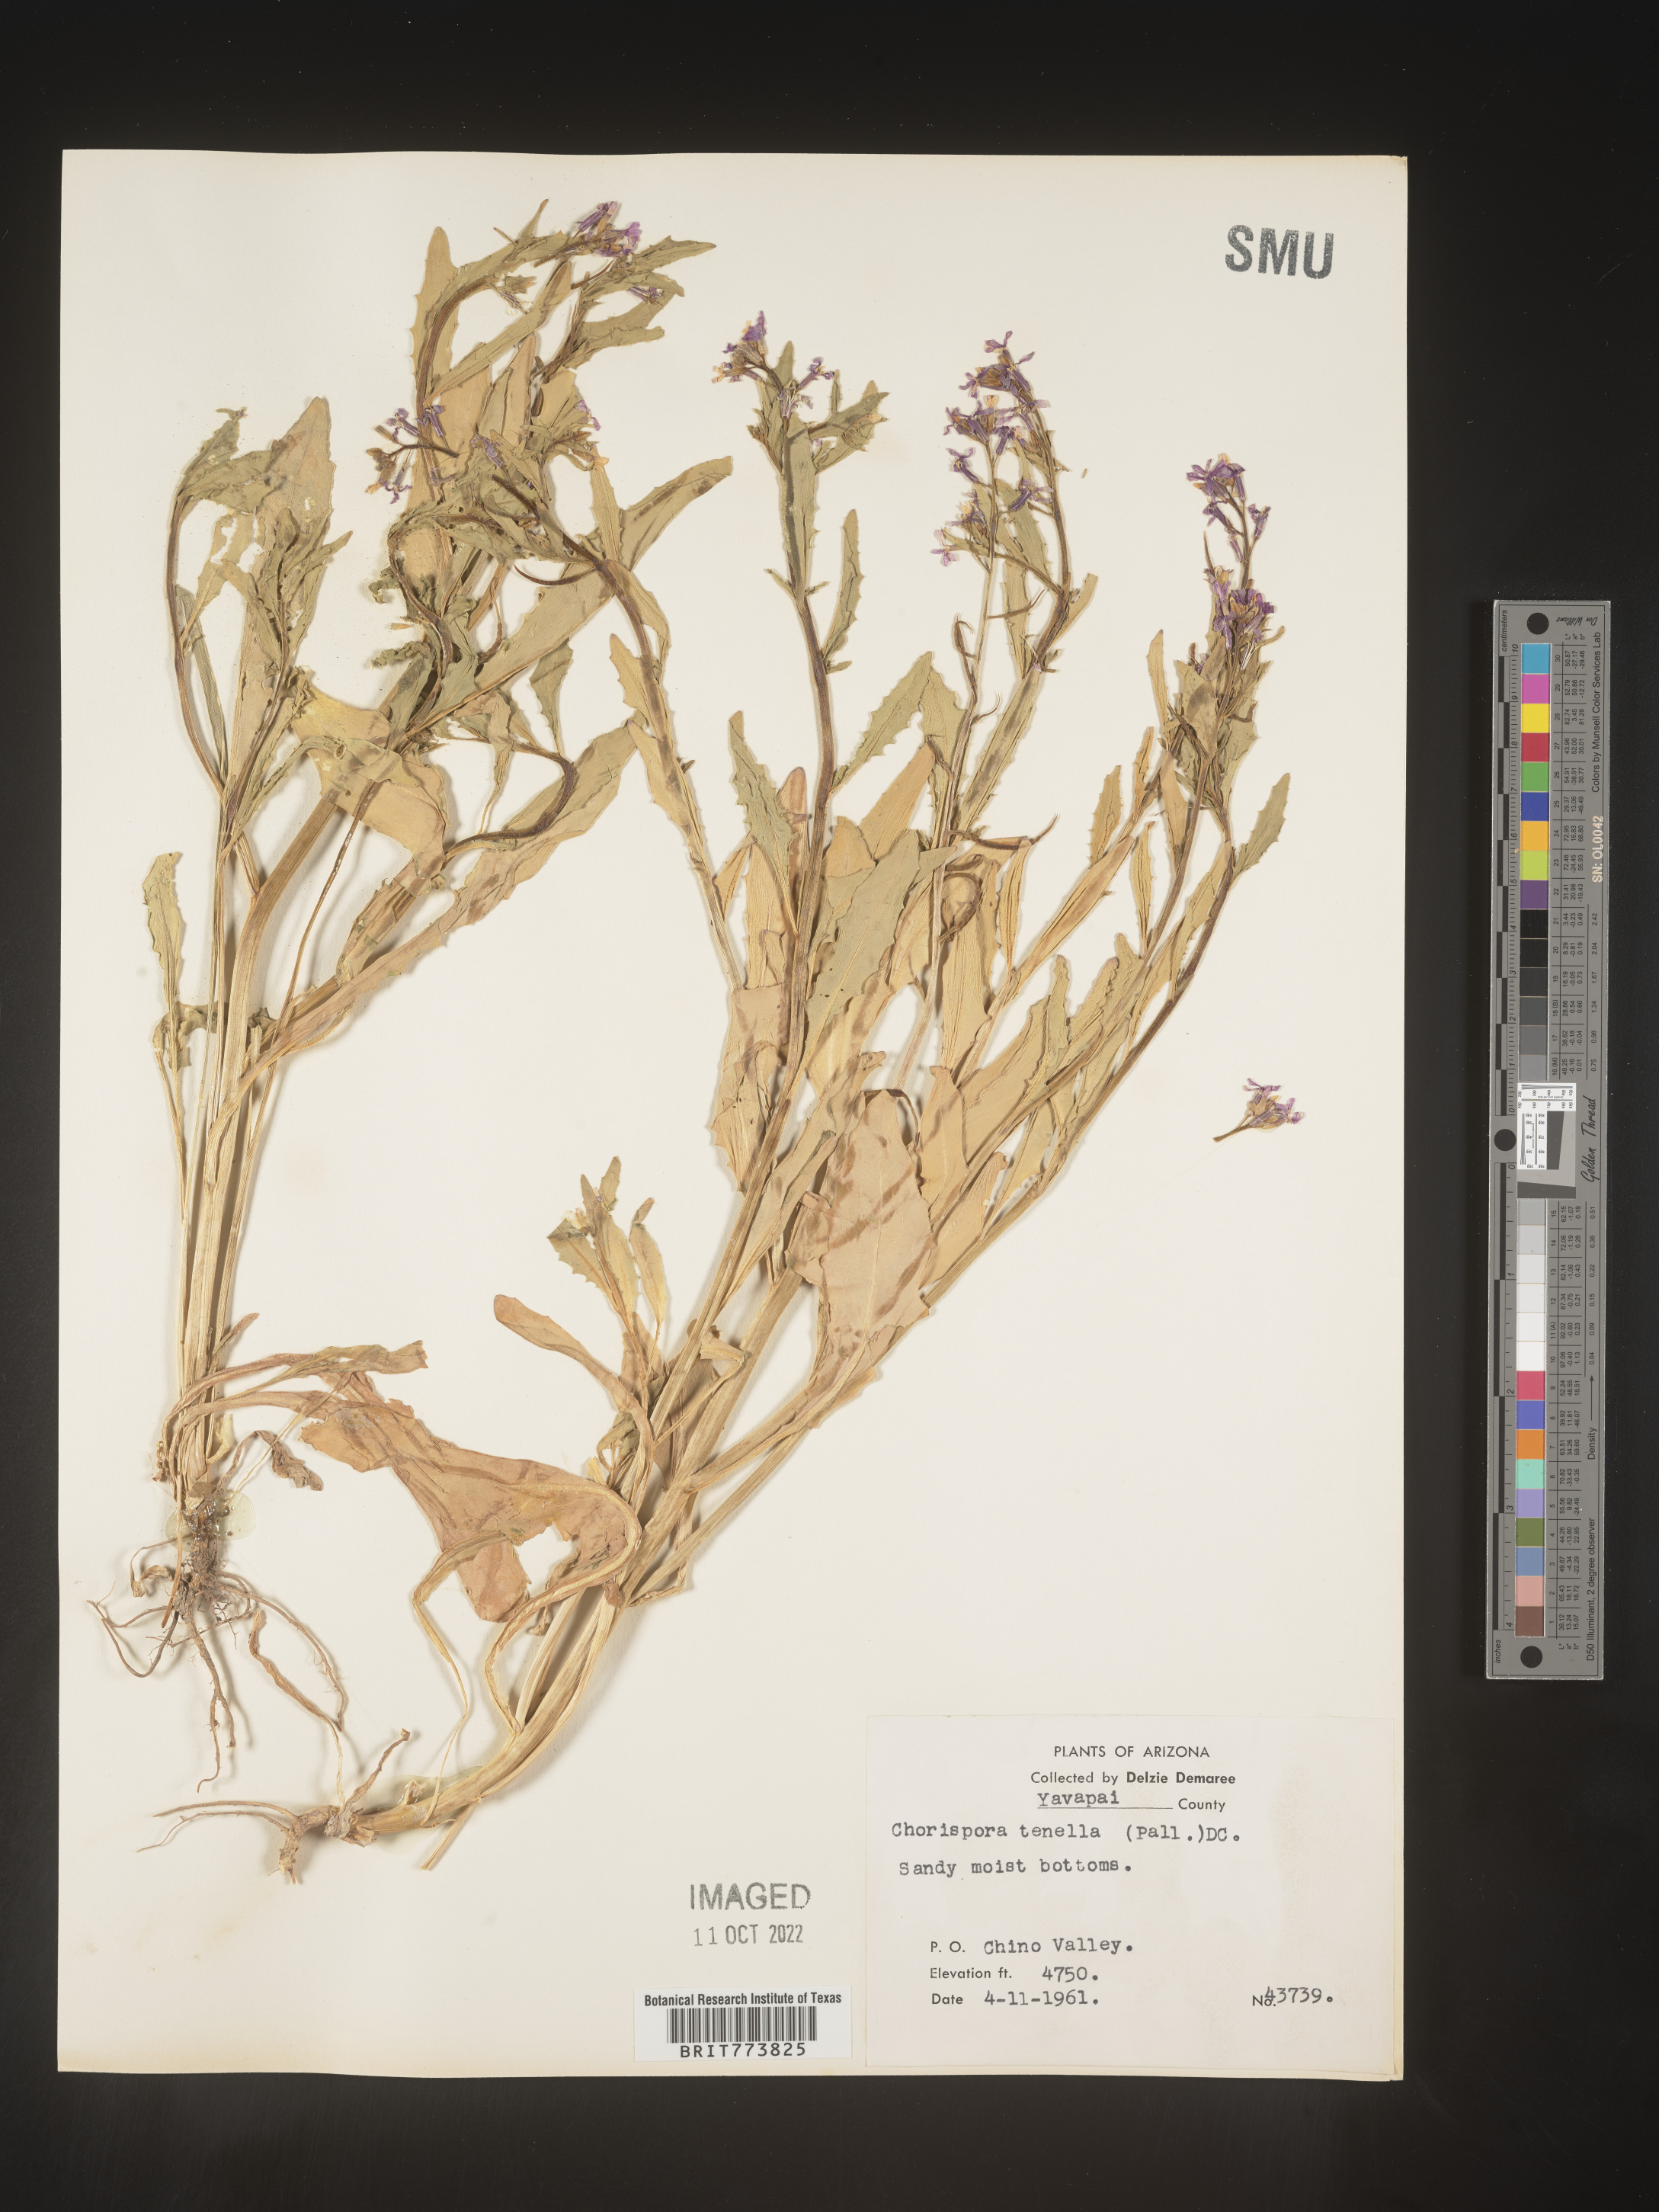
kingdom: Plantae
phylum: Tracheophyta
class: Magnoliopsida
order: Brassicales
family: Brassicaceae
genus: Chorispora
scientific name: Chorispora tenella
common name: Crossflower
